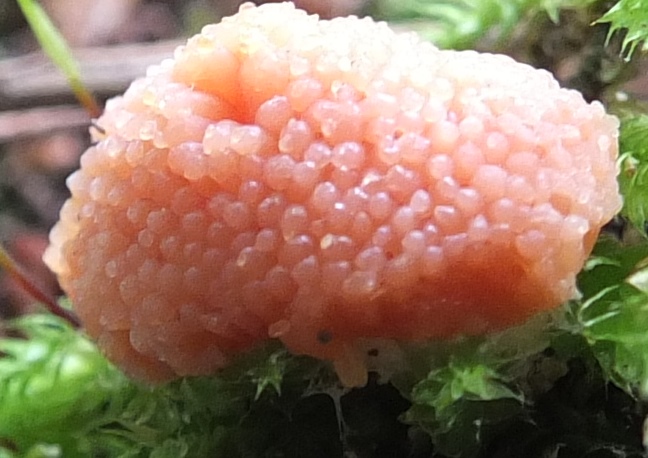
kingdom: Protozoa
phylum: Mycetozoa
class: Myxomycetes
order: Cribrariales
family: Tubiferaceae
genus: Tubifera
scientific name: Tubifera ferruginosa
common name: kanel-støvrør
